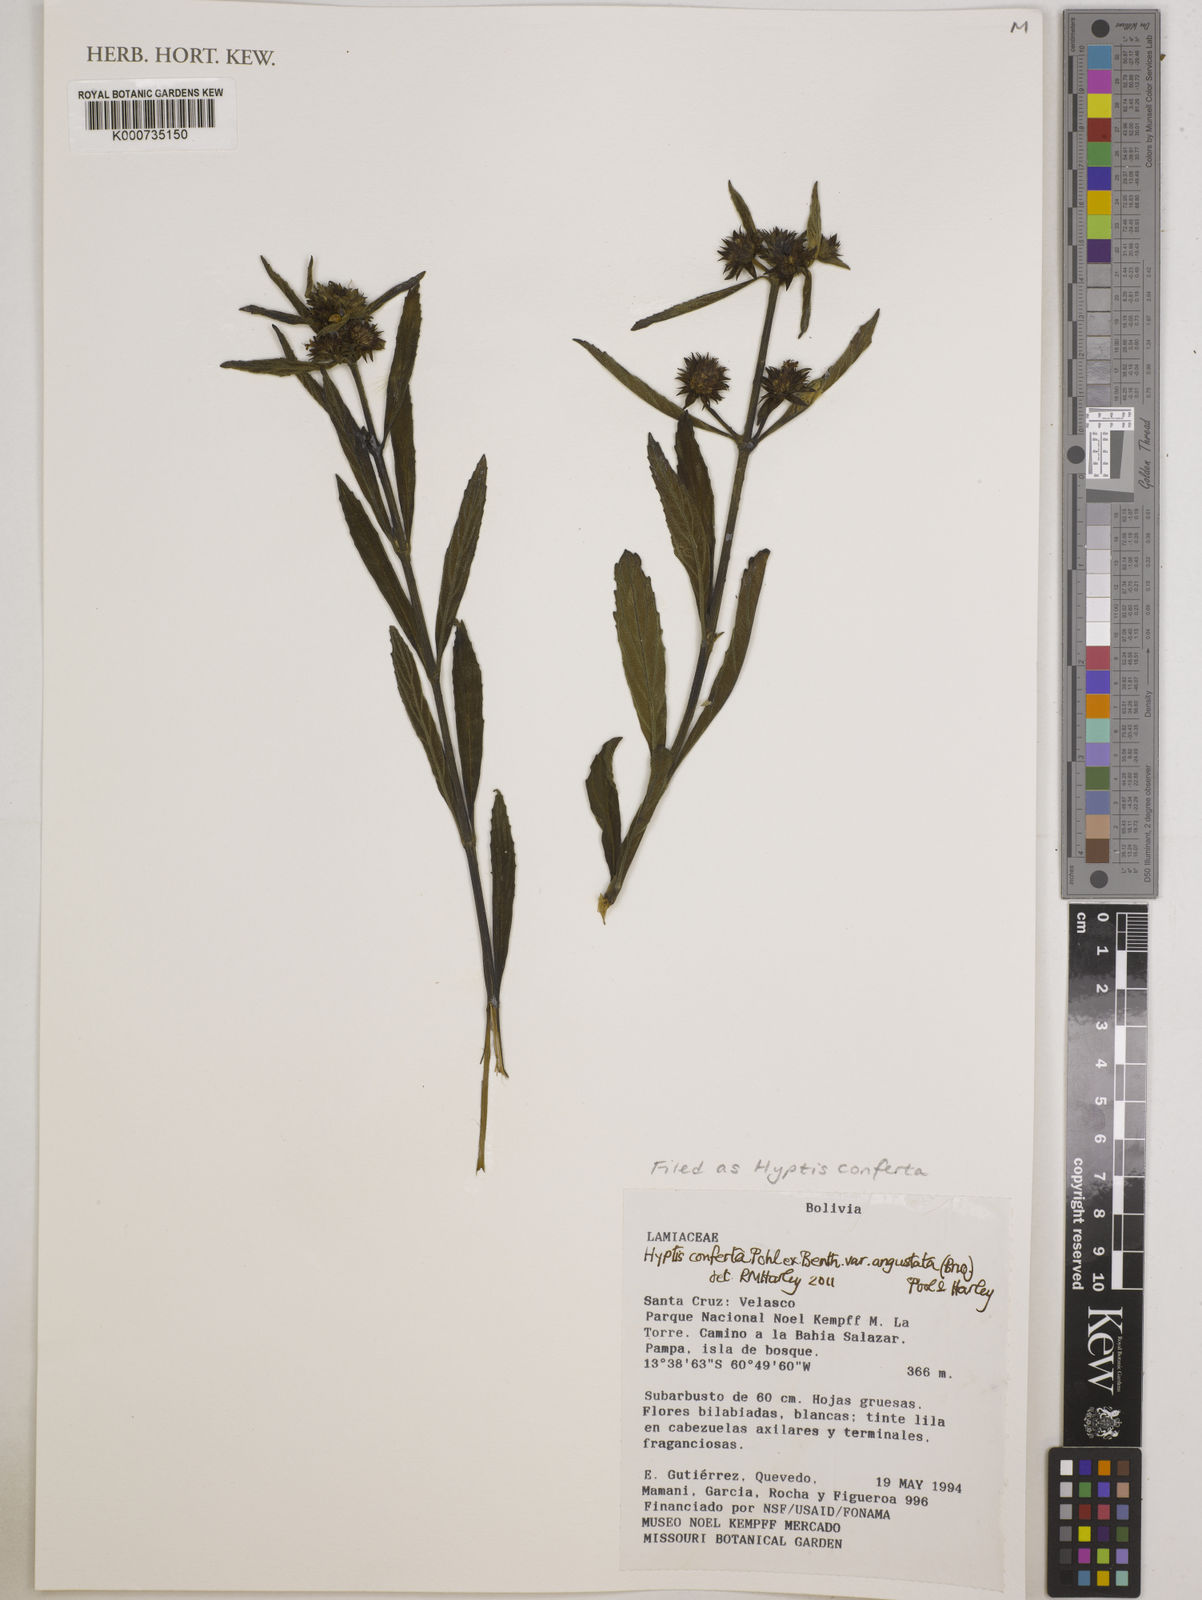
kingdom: Plantae
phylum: Tracheophyta
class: Magnoliopsida
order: Lamiales
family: Lamiaceae
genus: Hyptis
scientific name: Hyptis conferta
